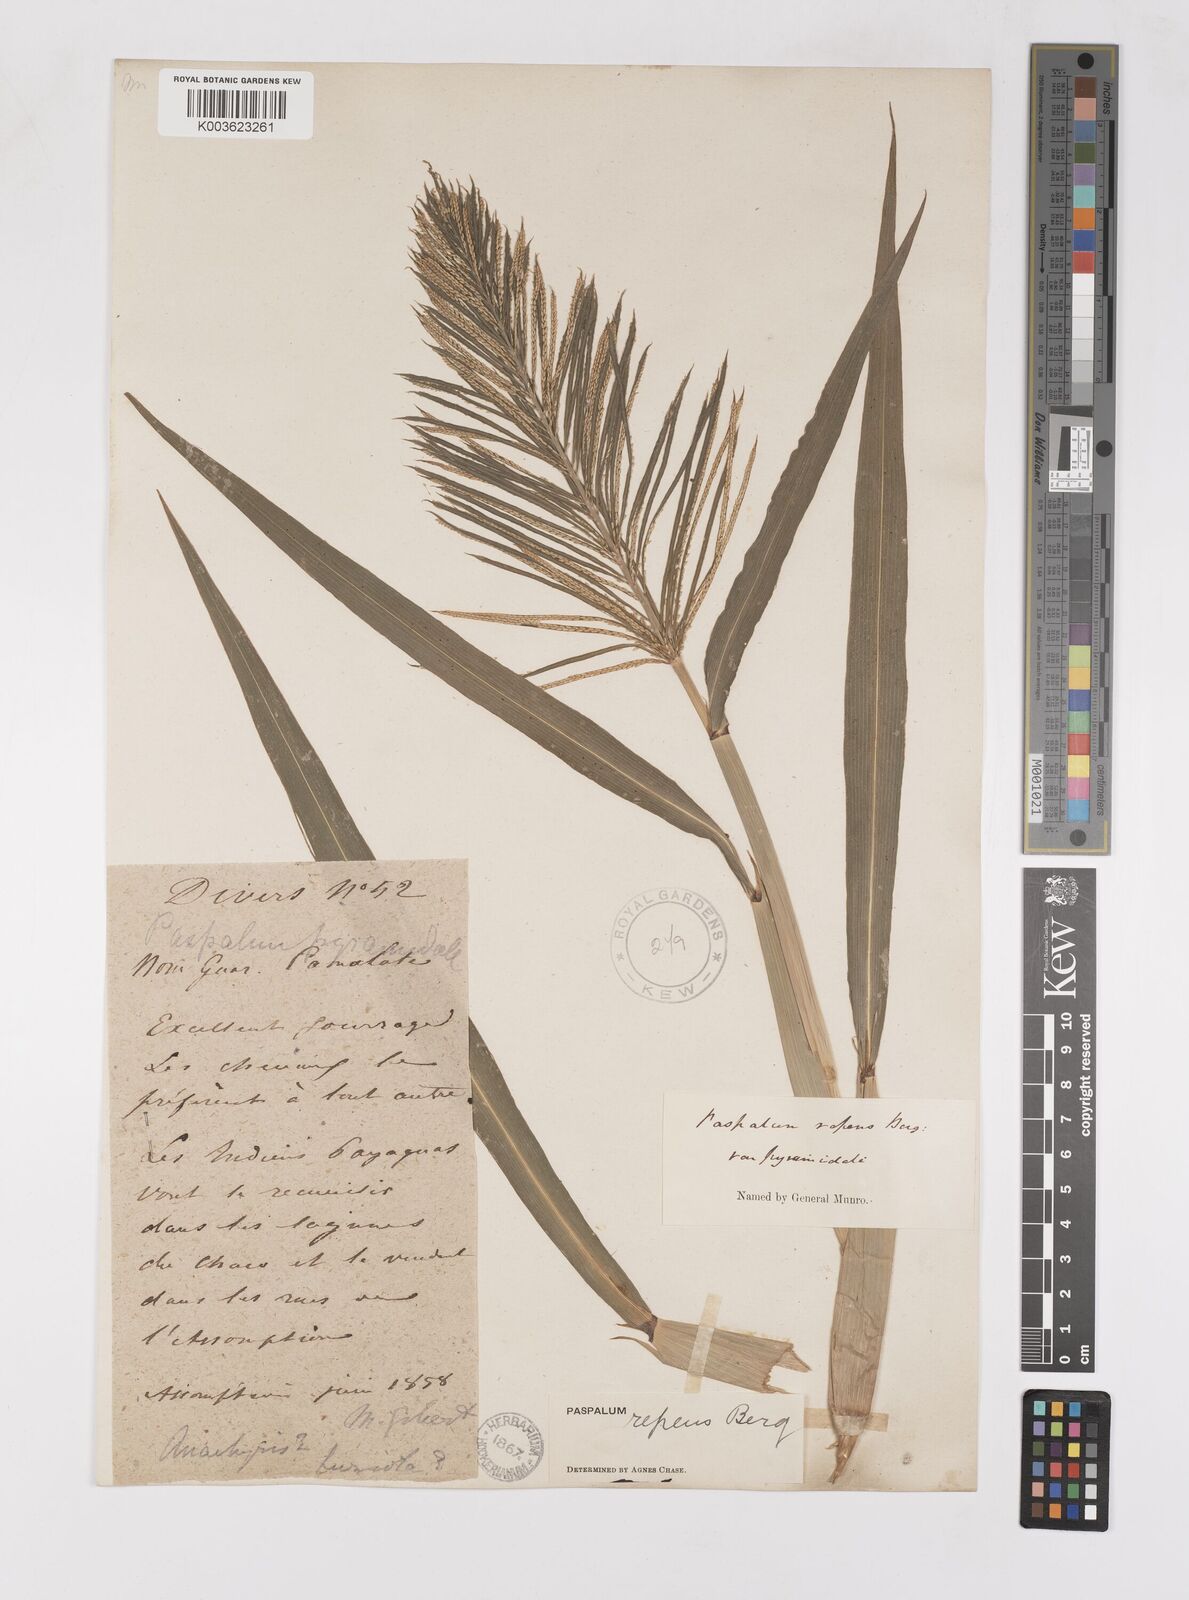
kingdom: Plantae
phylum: Tracheophyta
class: Liliopsida
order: Poales
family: Poaceae
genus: Paspalum
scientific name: Paspalum repens
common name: Water paspalum
